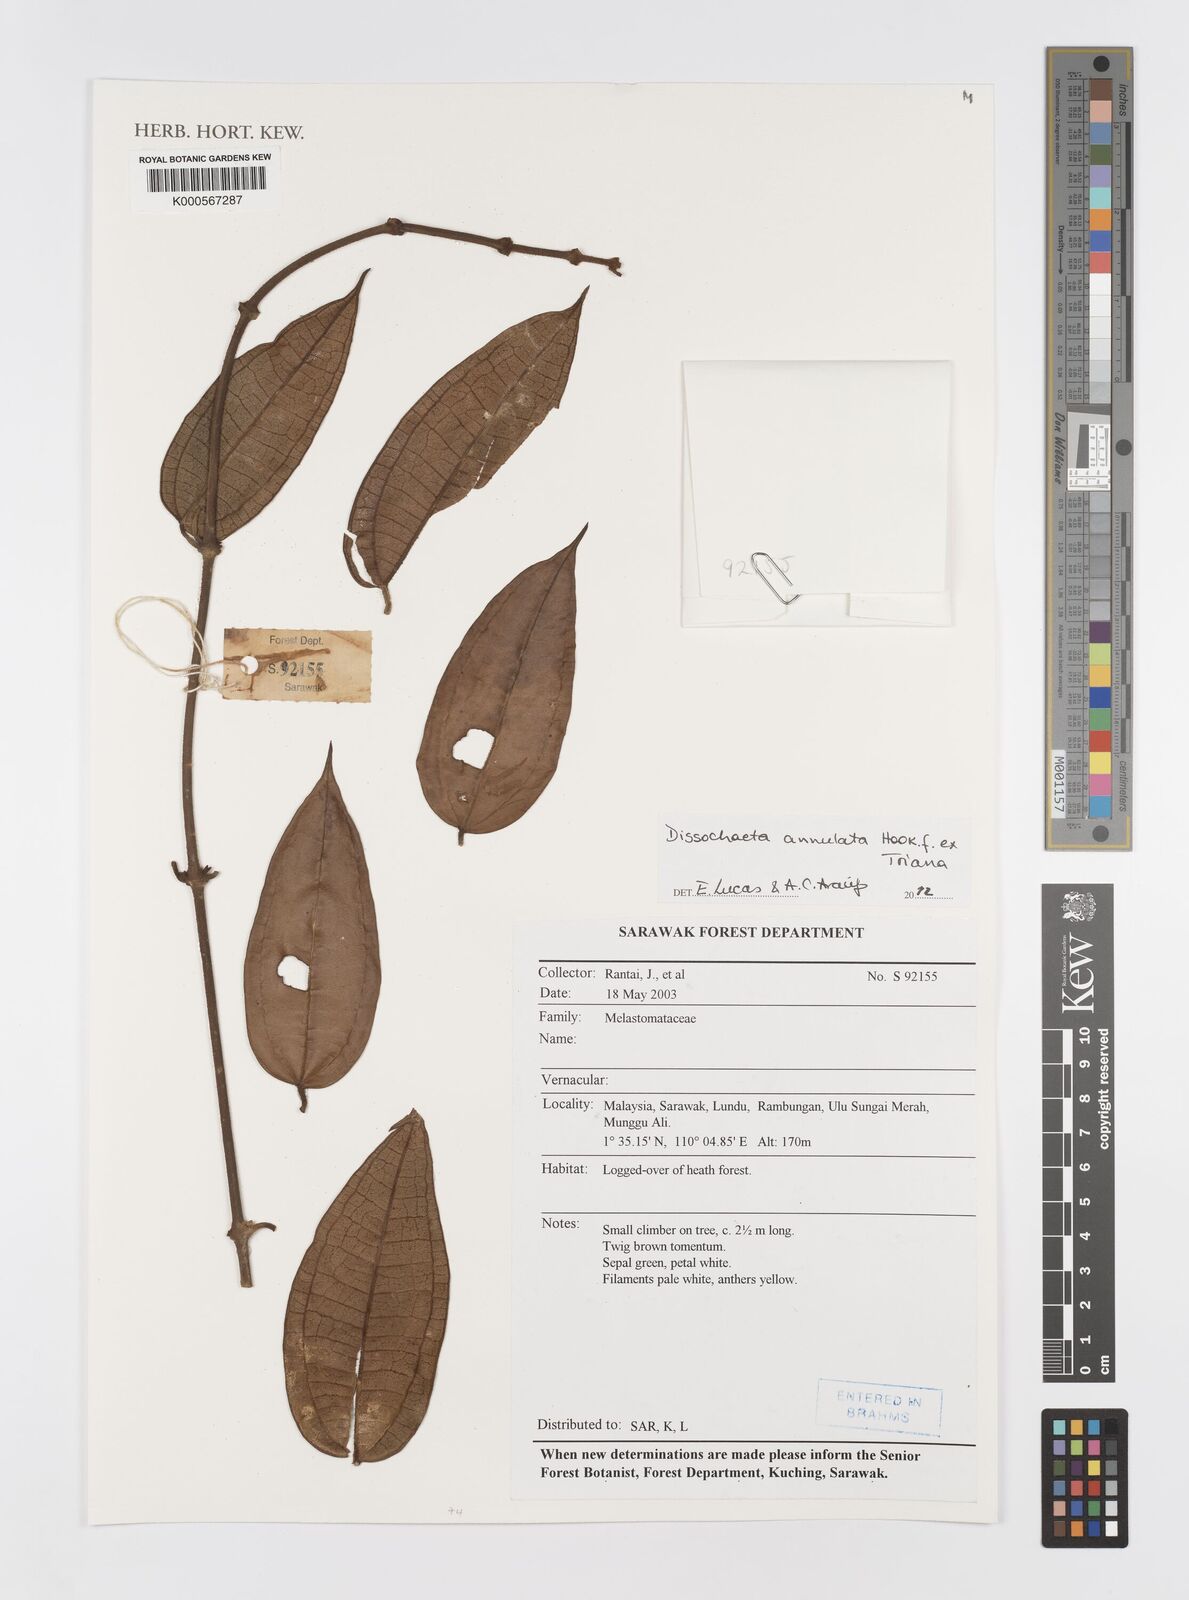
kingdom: Plantae
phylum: Tracheophyta
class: Magnoliopsida
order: Myrtales
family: Melastomataceae
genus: Dissochaeta
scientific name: Dissochaeta annulata
